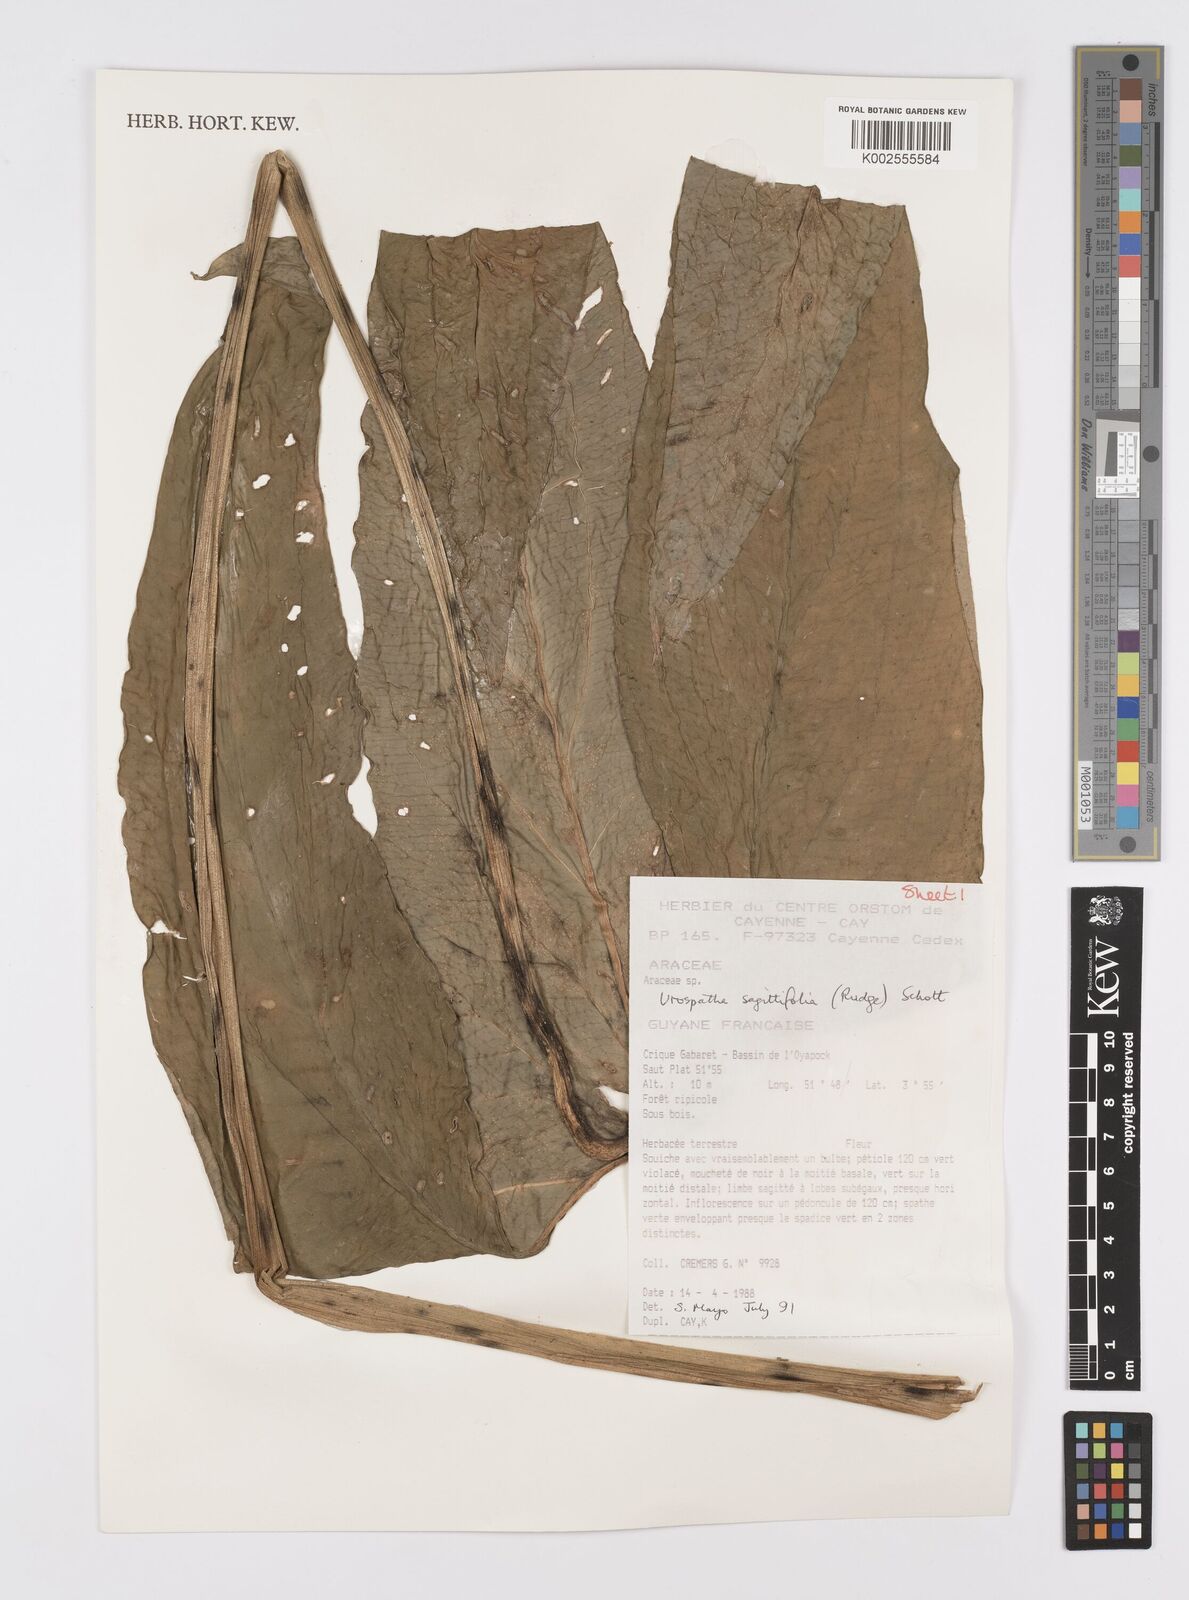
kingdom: Plantae
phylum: Tracheophyta
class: Liliopsida
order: Alismatales
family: Araceae
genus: Urospatha
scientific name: Urospatha sagittifolia
